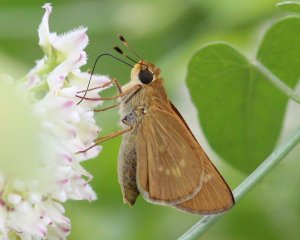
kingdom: Animalia
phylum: Arthropoda
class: Insecta
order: Lepidoptera
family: Hesperiidae
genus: Mellana
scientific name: Mellana eulogius
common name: Common Mellana
